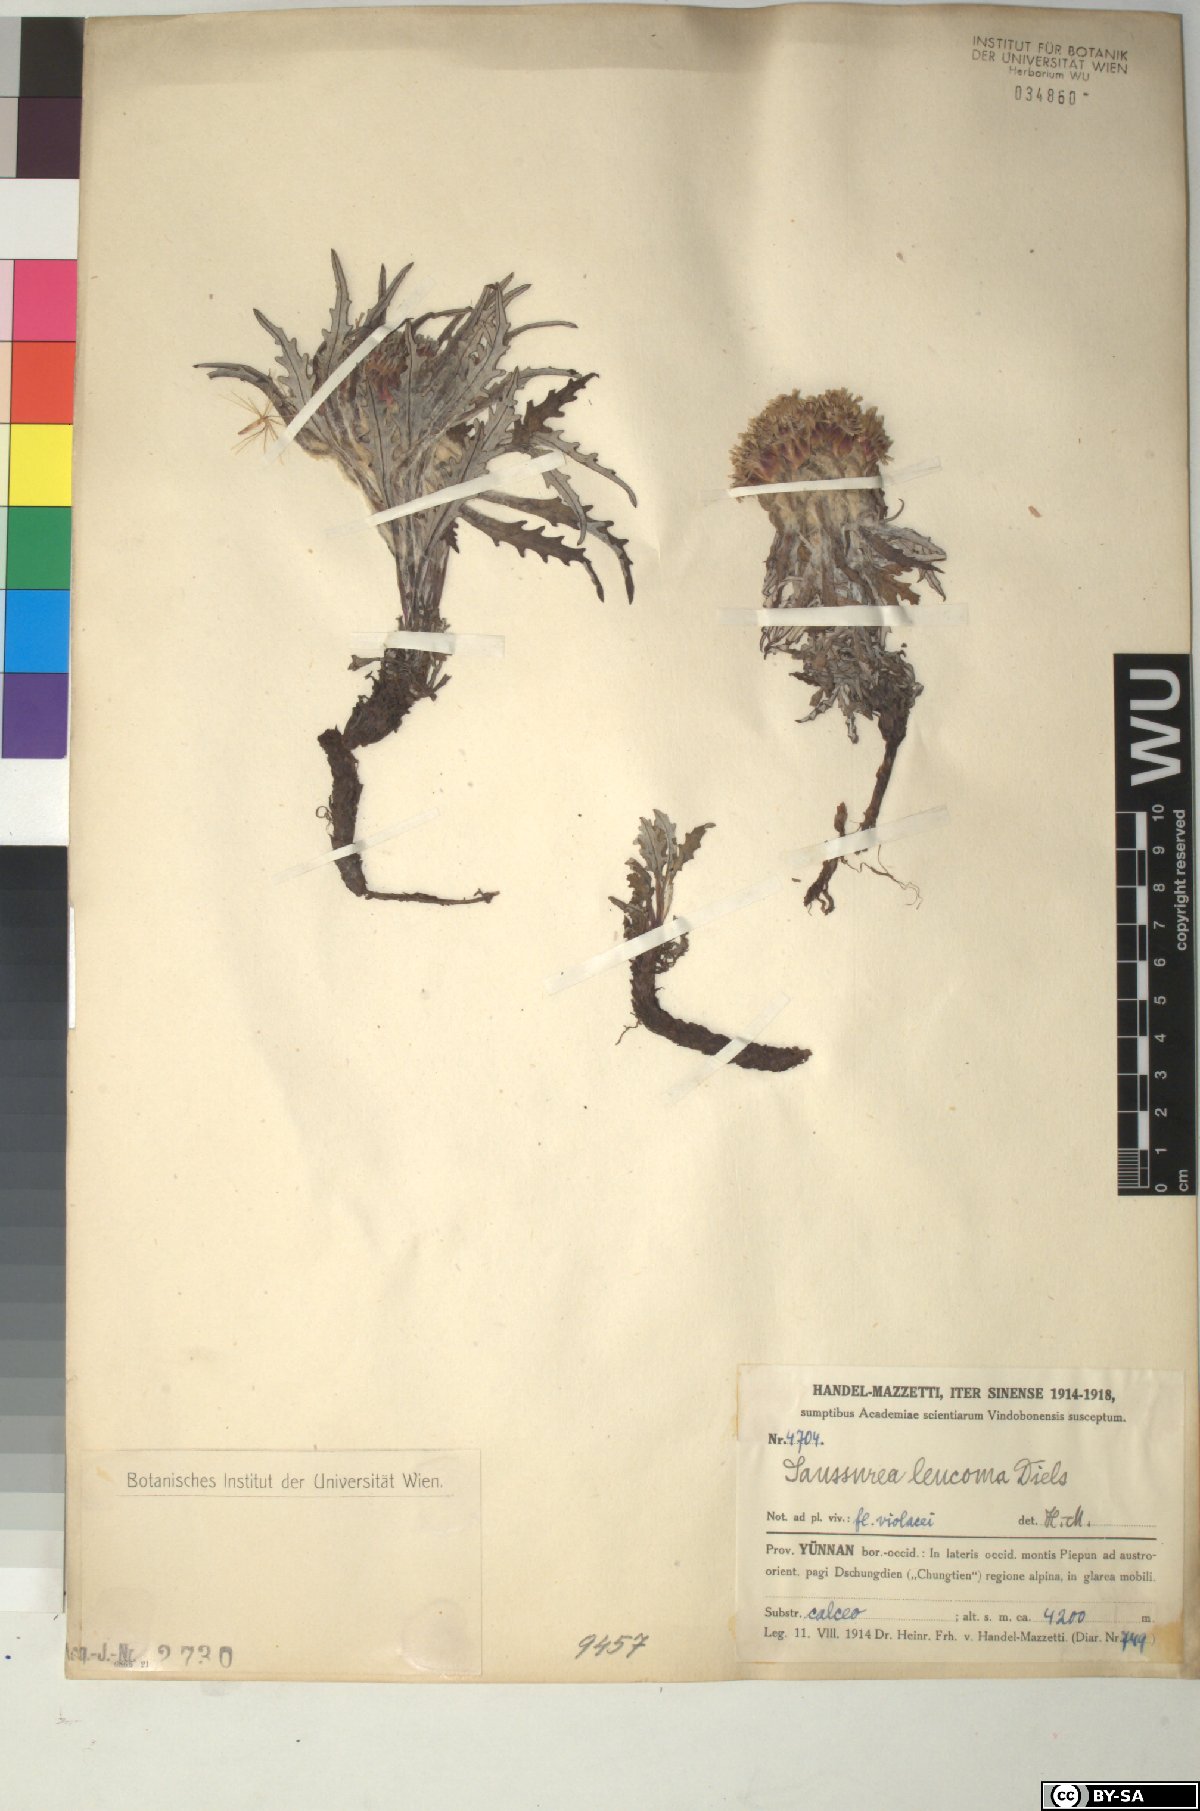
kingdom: Plantae
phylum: Tracheophyta
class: Magnoliopsida
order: Asterales
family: Asteraceae
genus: Saussurea
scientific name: Saussurea leucoma
